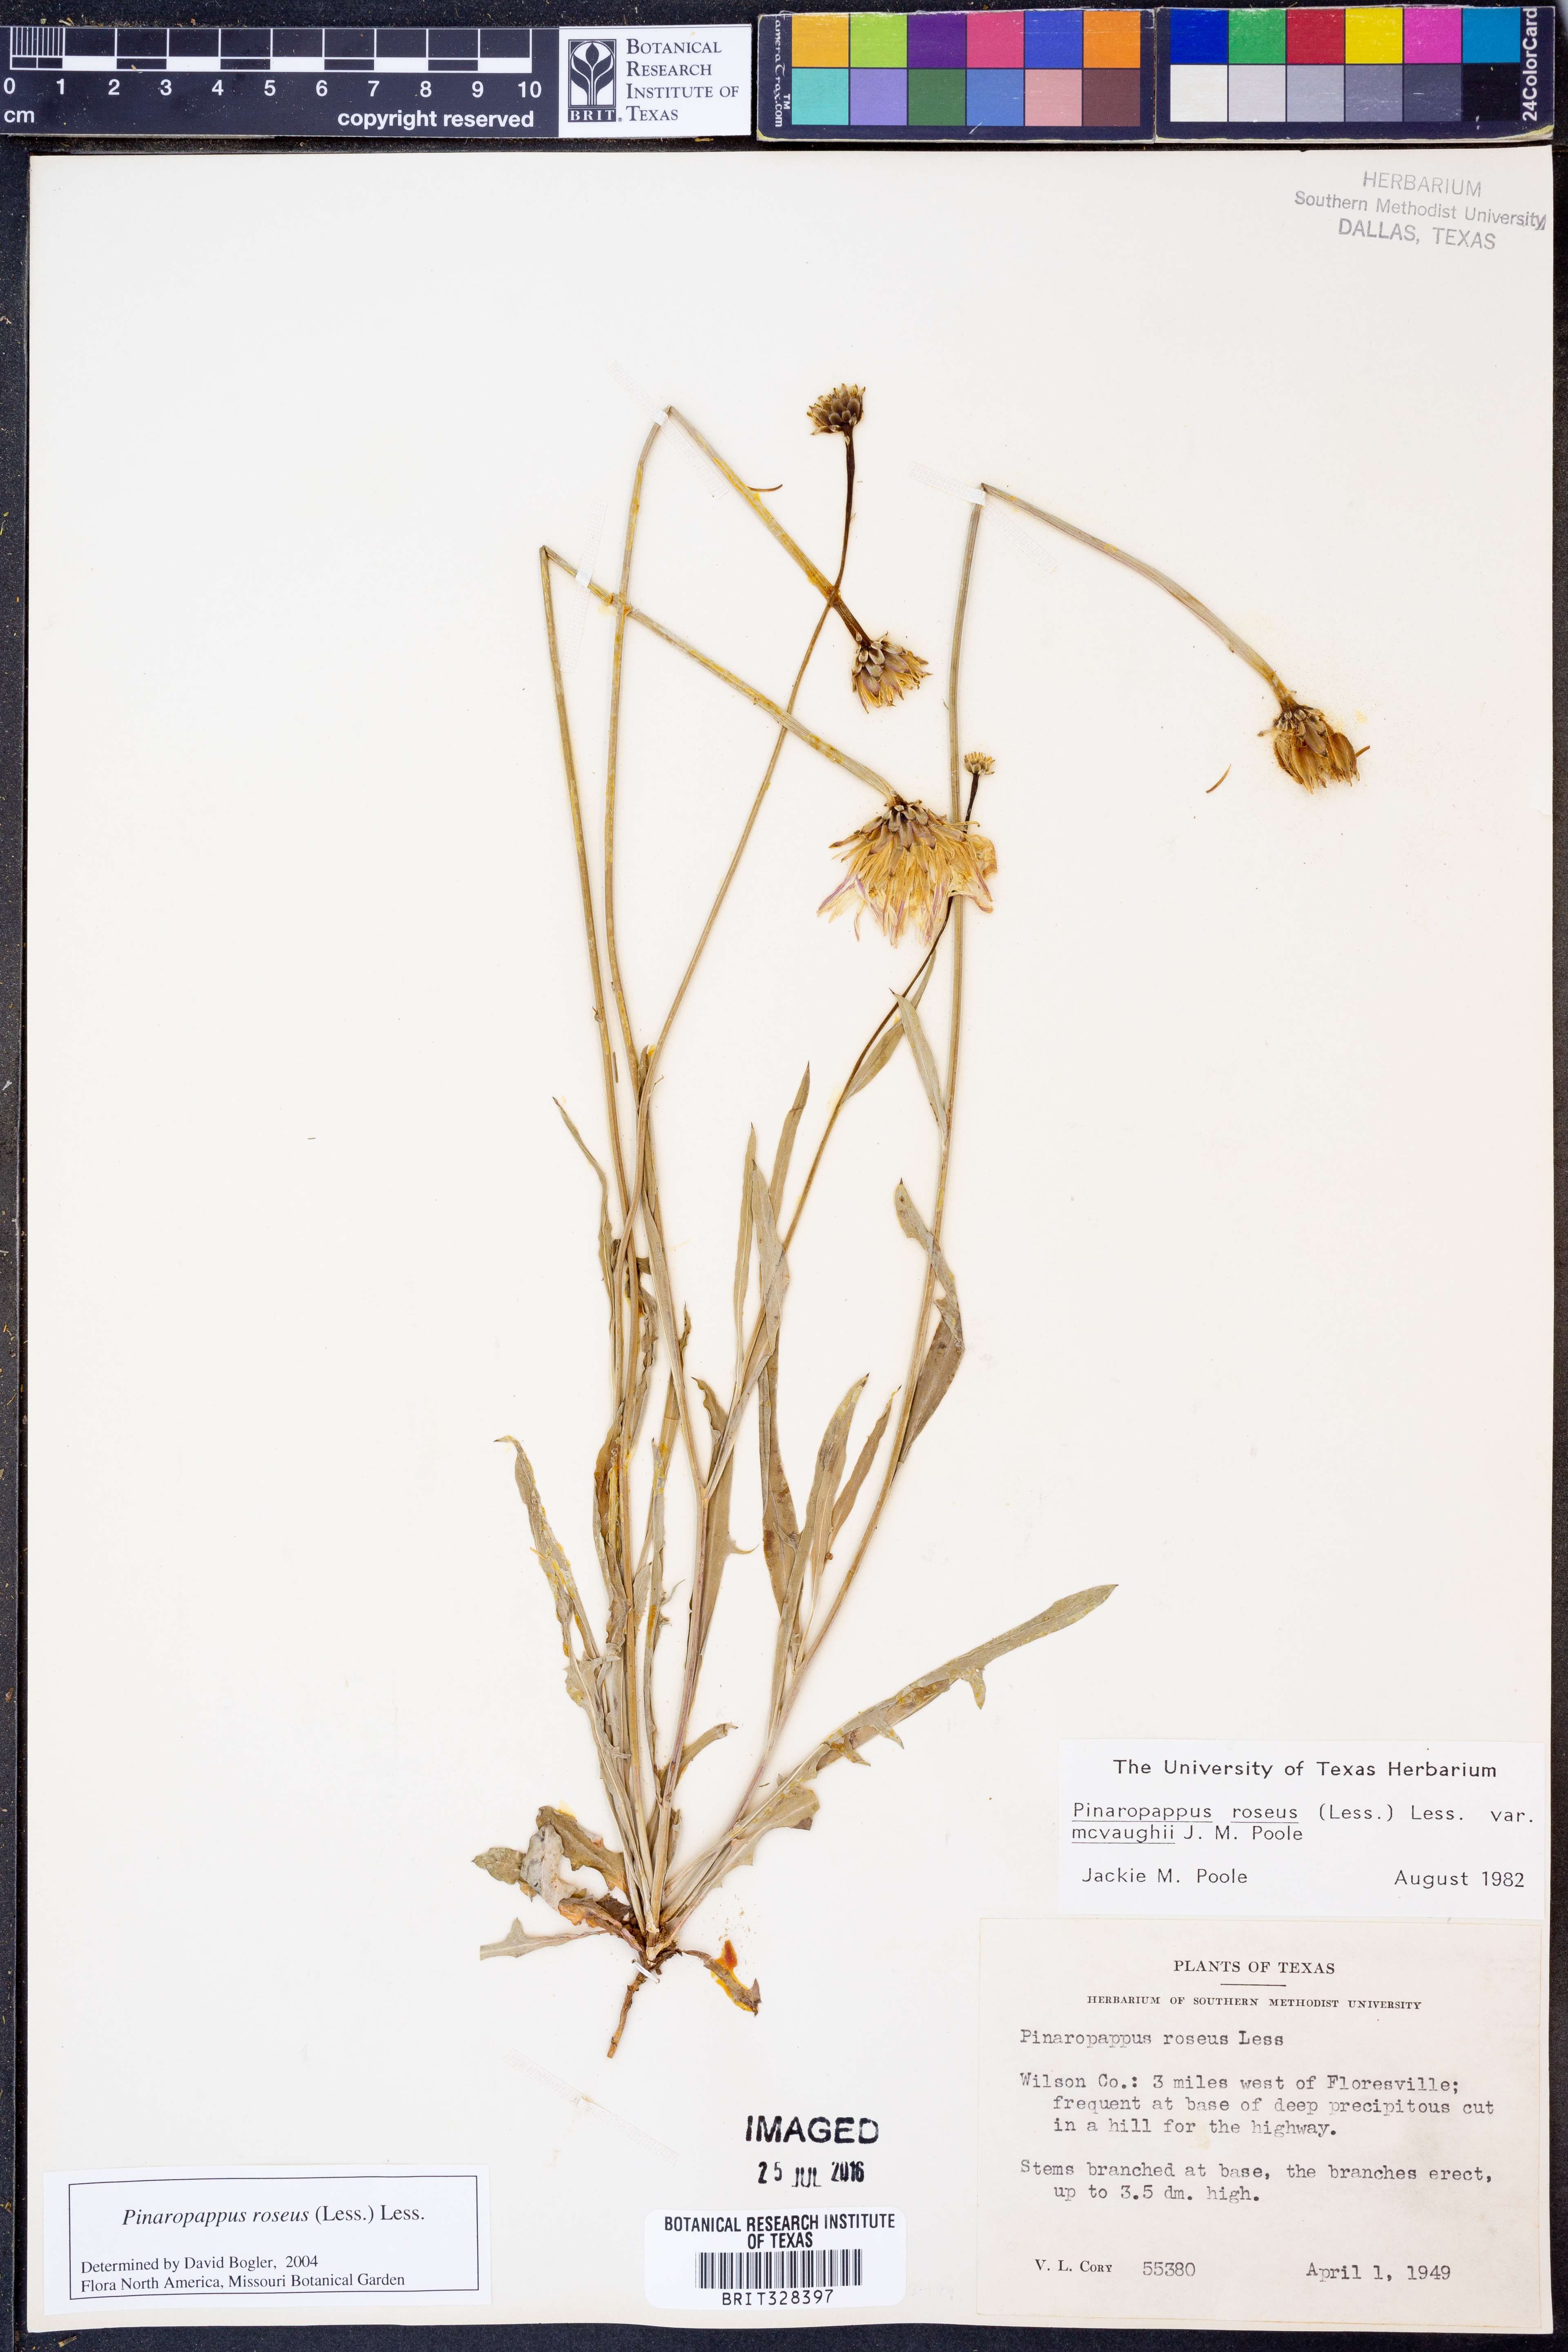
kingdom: Plantae
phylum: Tracheophyta
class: Magnoliopsida
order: Asterales
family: Asteraceae
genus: Pinaropappus
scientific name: Pinaropappus roseus
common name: Rock-lettuce
